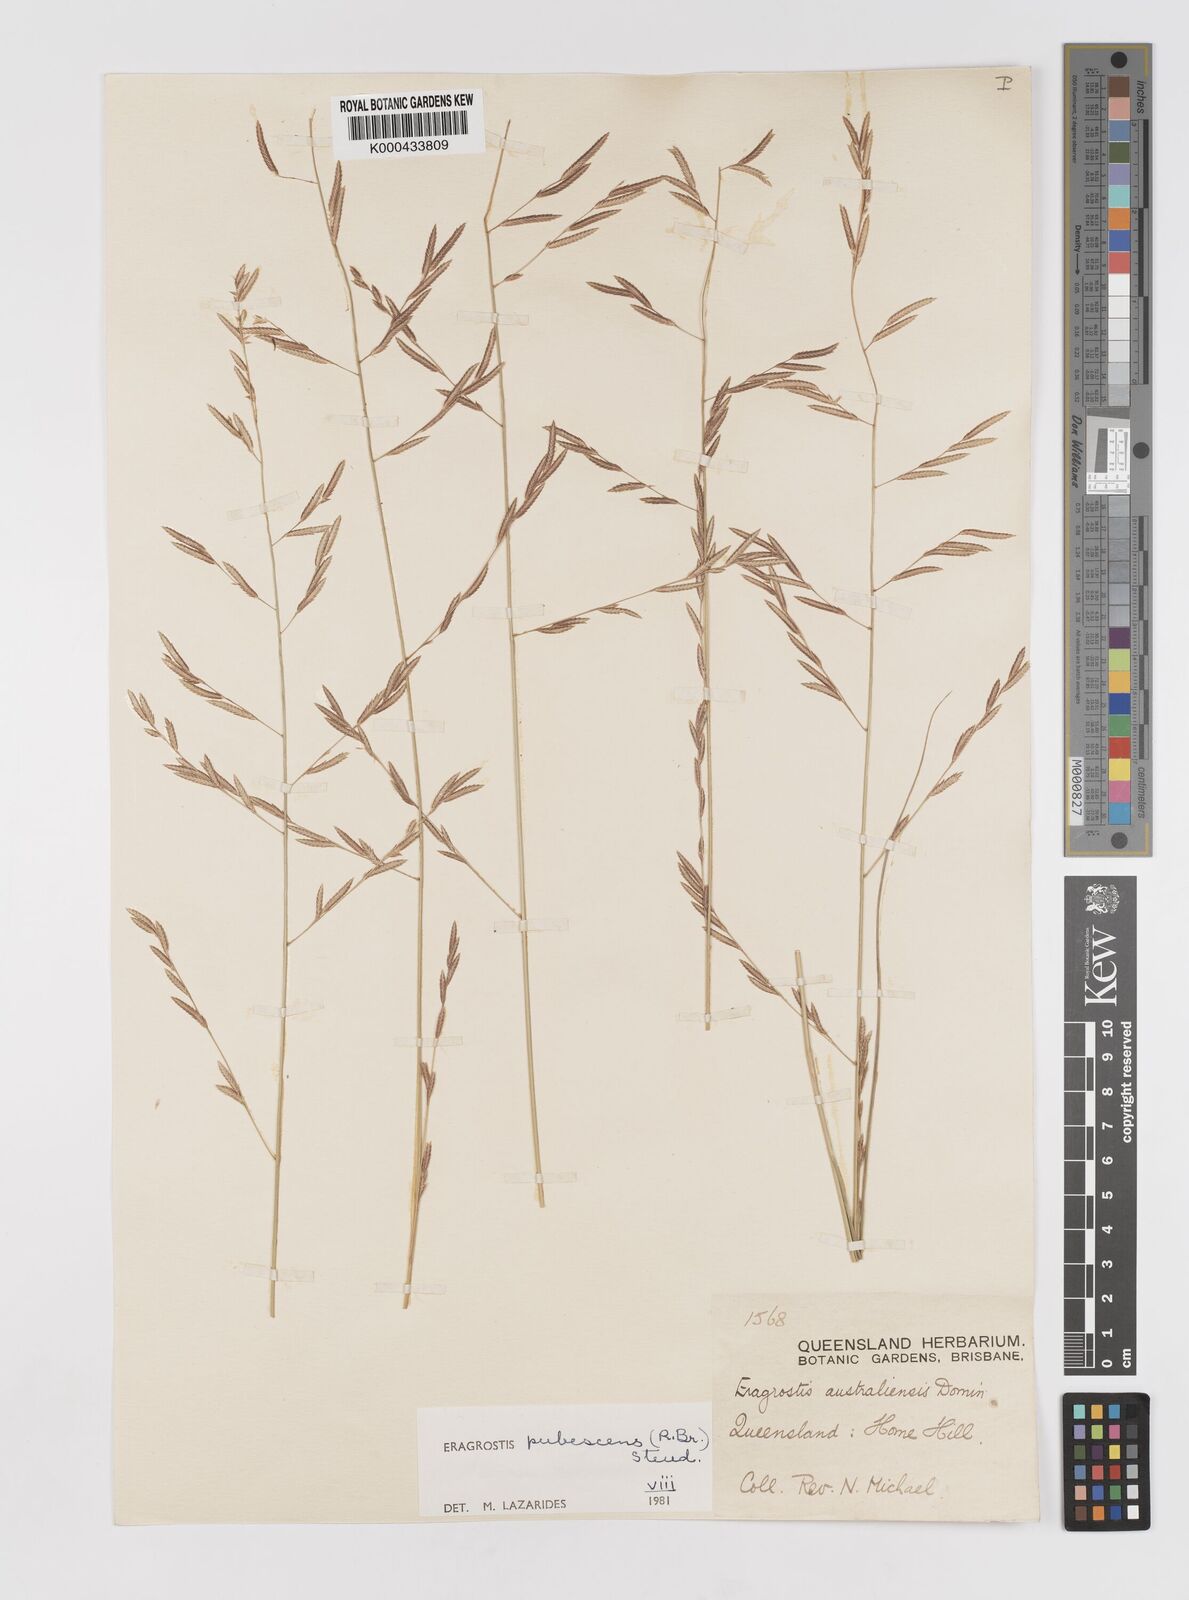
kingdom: Plantae
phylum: Tracheophyta
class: Liliopsida
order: Poales
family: Poaceae
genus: Eragrostis
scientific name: Eragrostis pubescens
